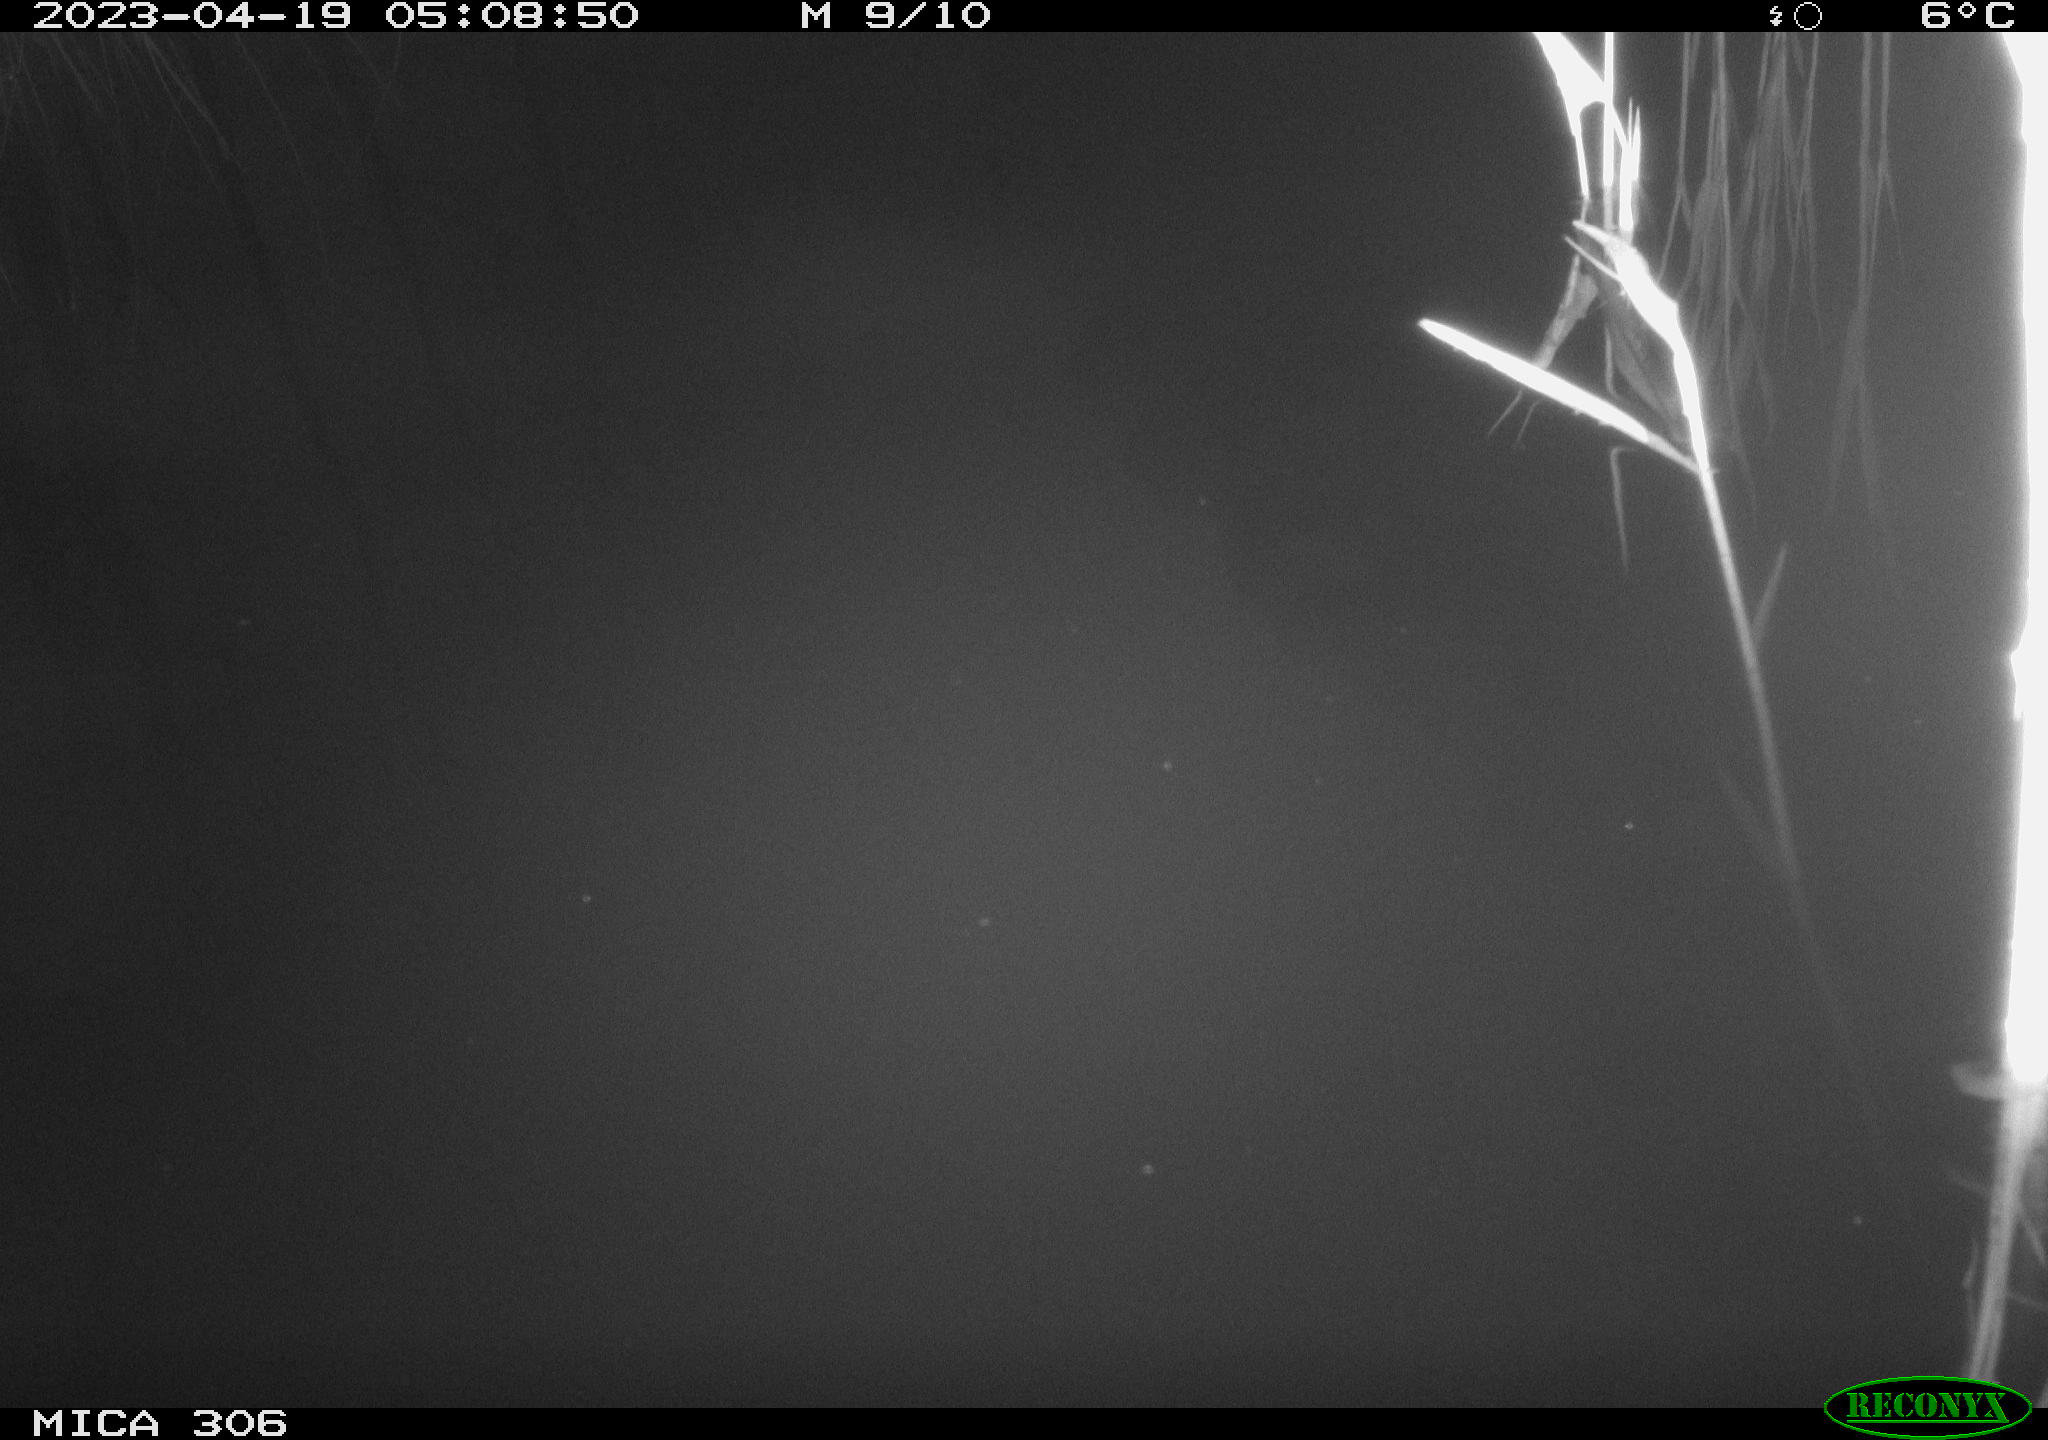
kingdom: Animalia
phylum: Chordata
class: Aves
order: Anseriformes
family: Anatidae
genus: Anas
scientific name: Anas
